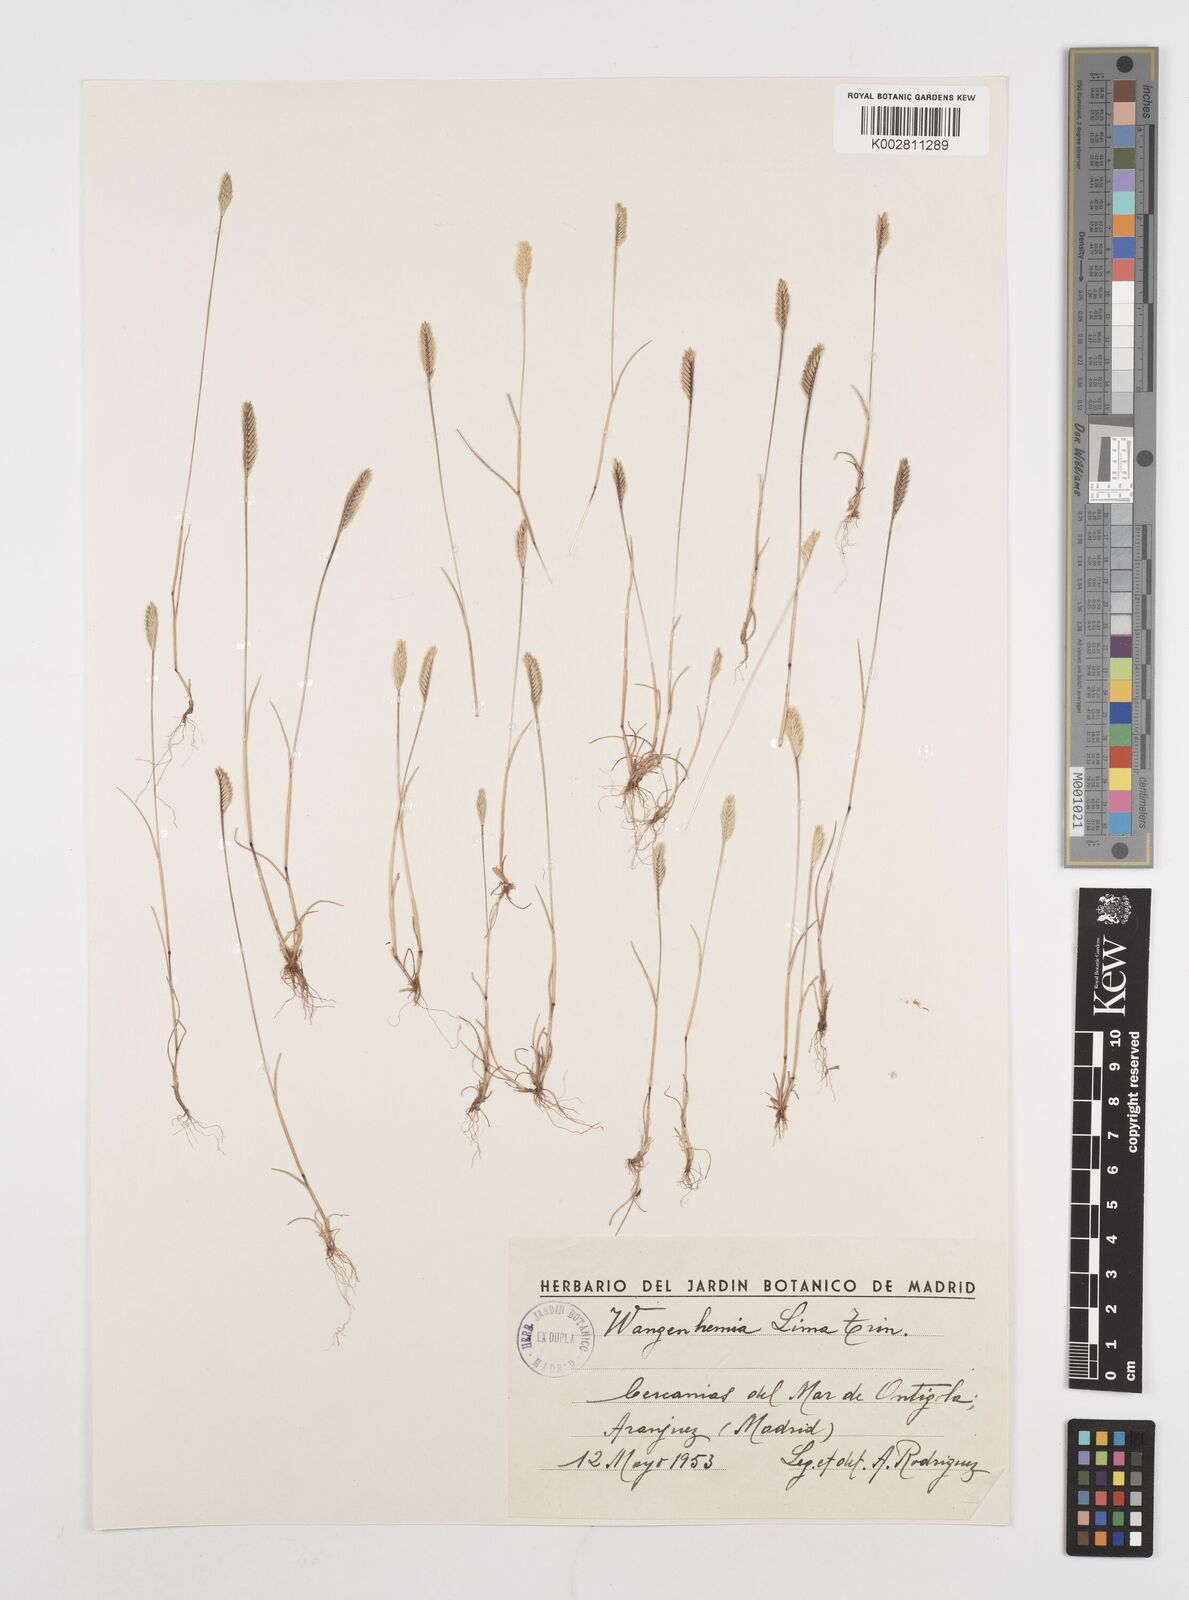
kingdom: Plantae
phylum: Tracheophyta
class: Liliopsida
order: Poales
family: Poaceae
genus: Wangenheimia
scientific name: Wangenheimia lima
